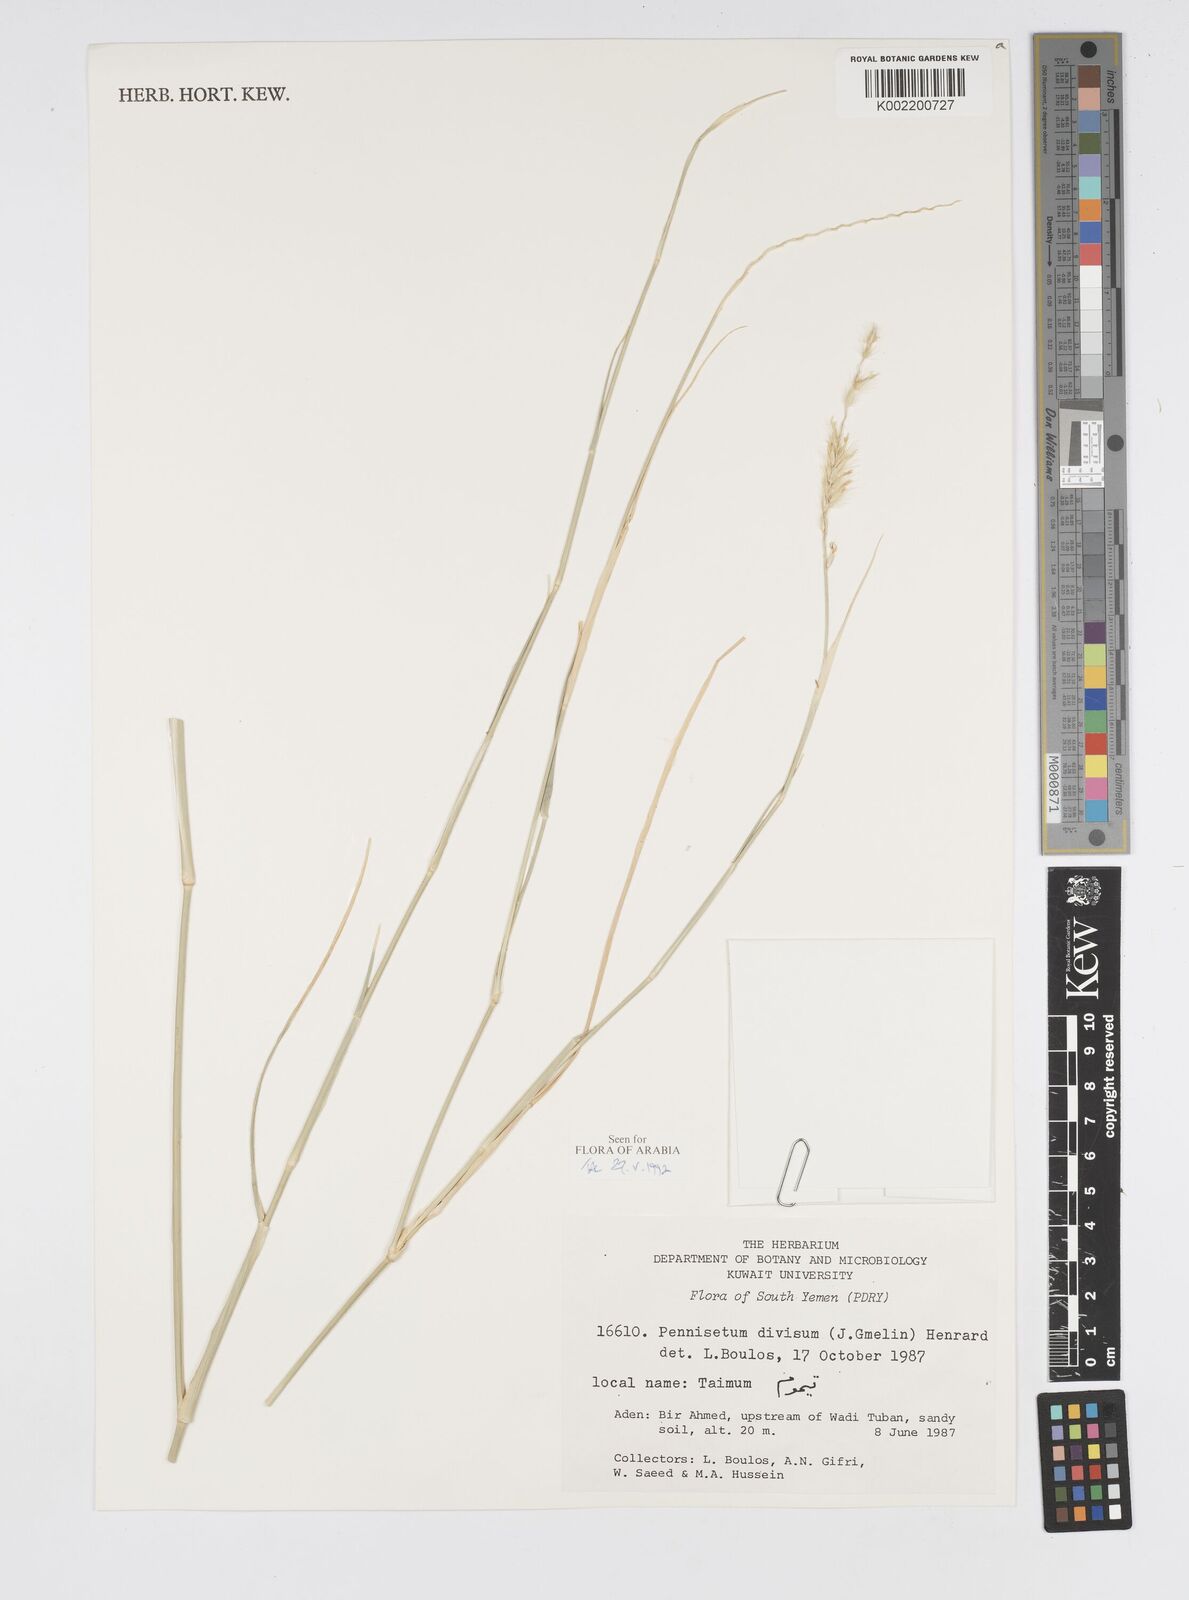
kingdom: Plantae
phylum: Tracheophyta
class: Liliopsida
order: Poales
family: Poaceae
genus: Cenchrus
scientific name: Cenchrus divisus
